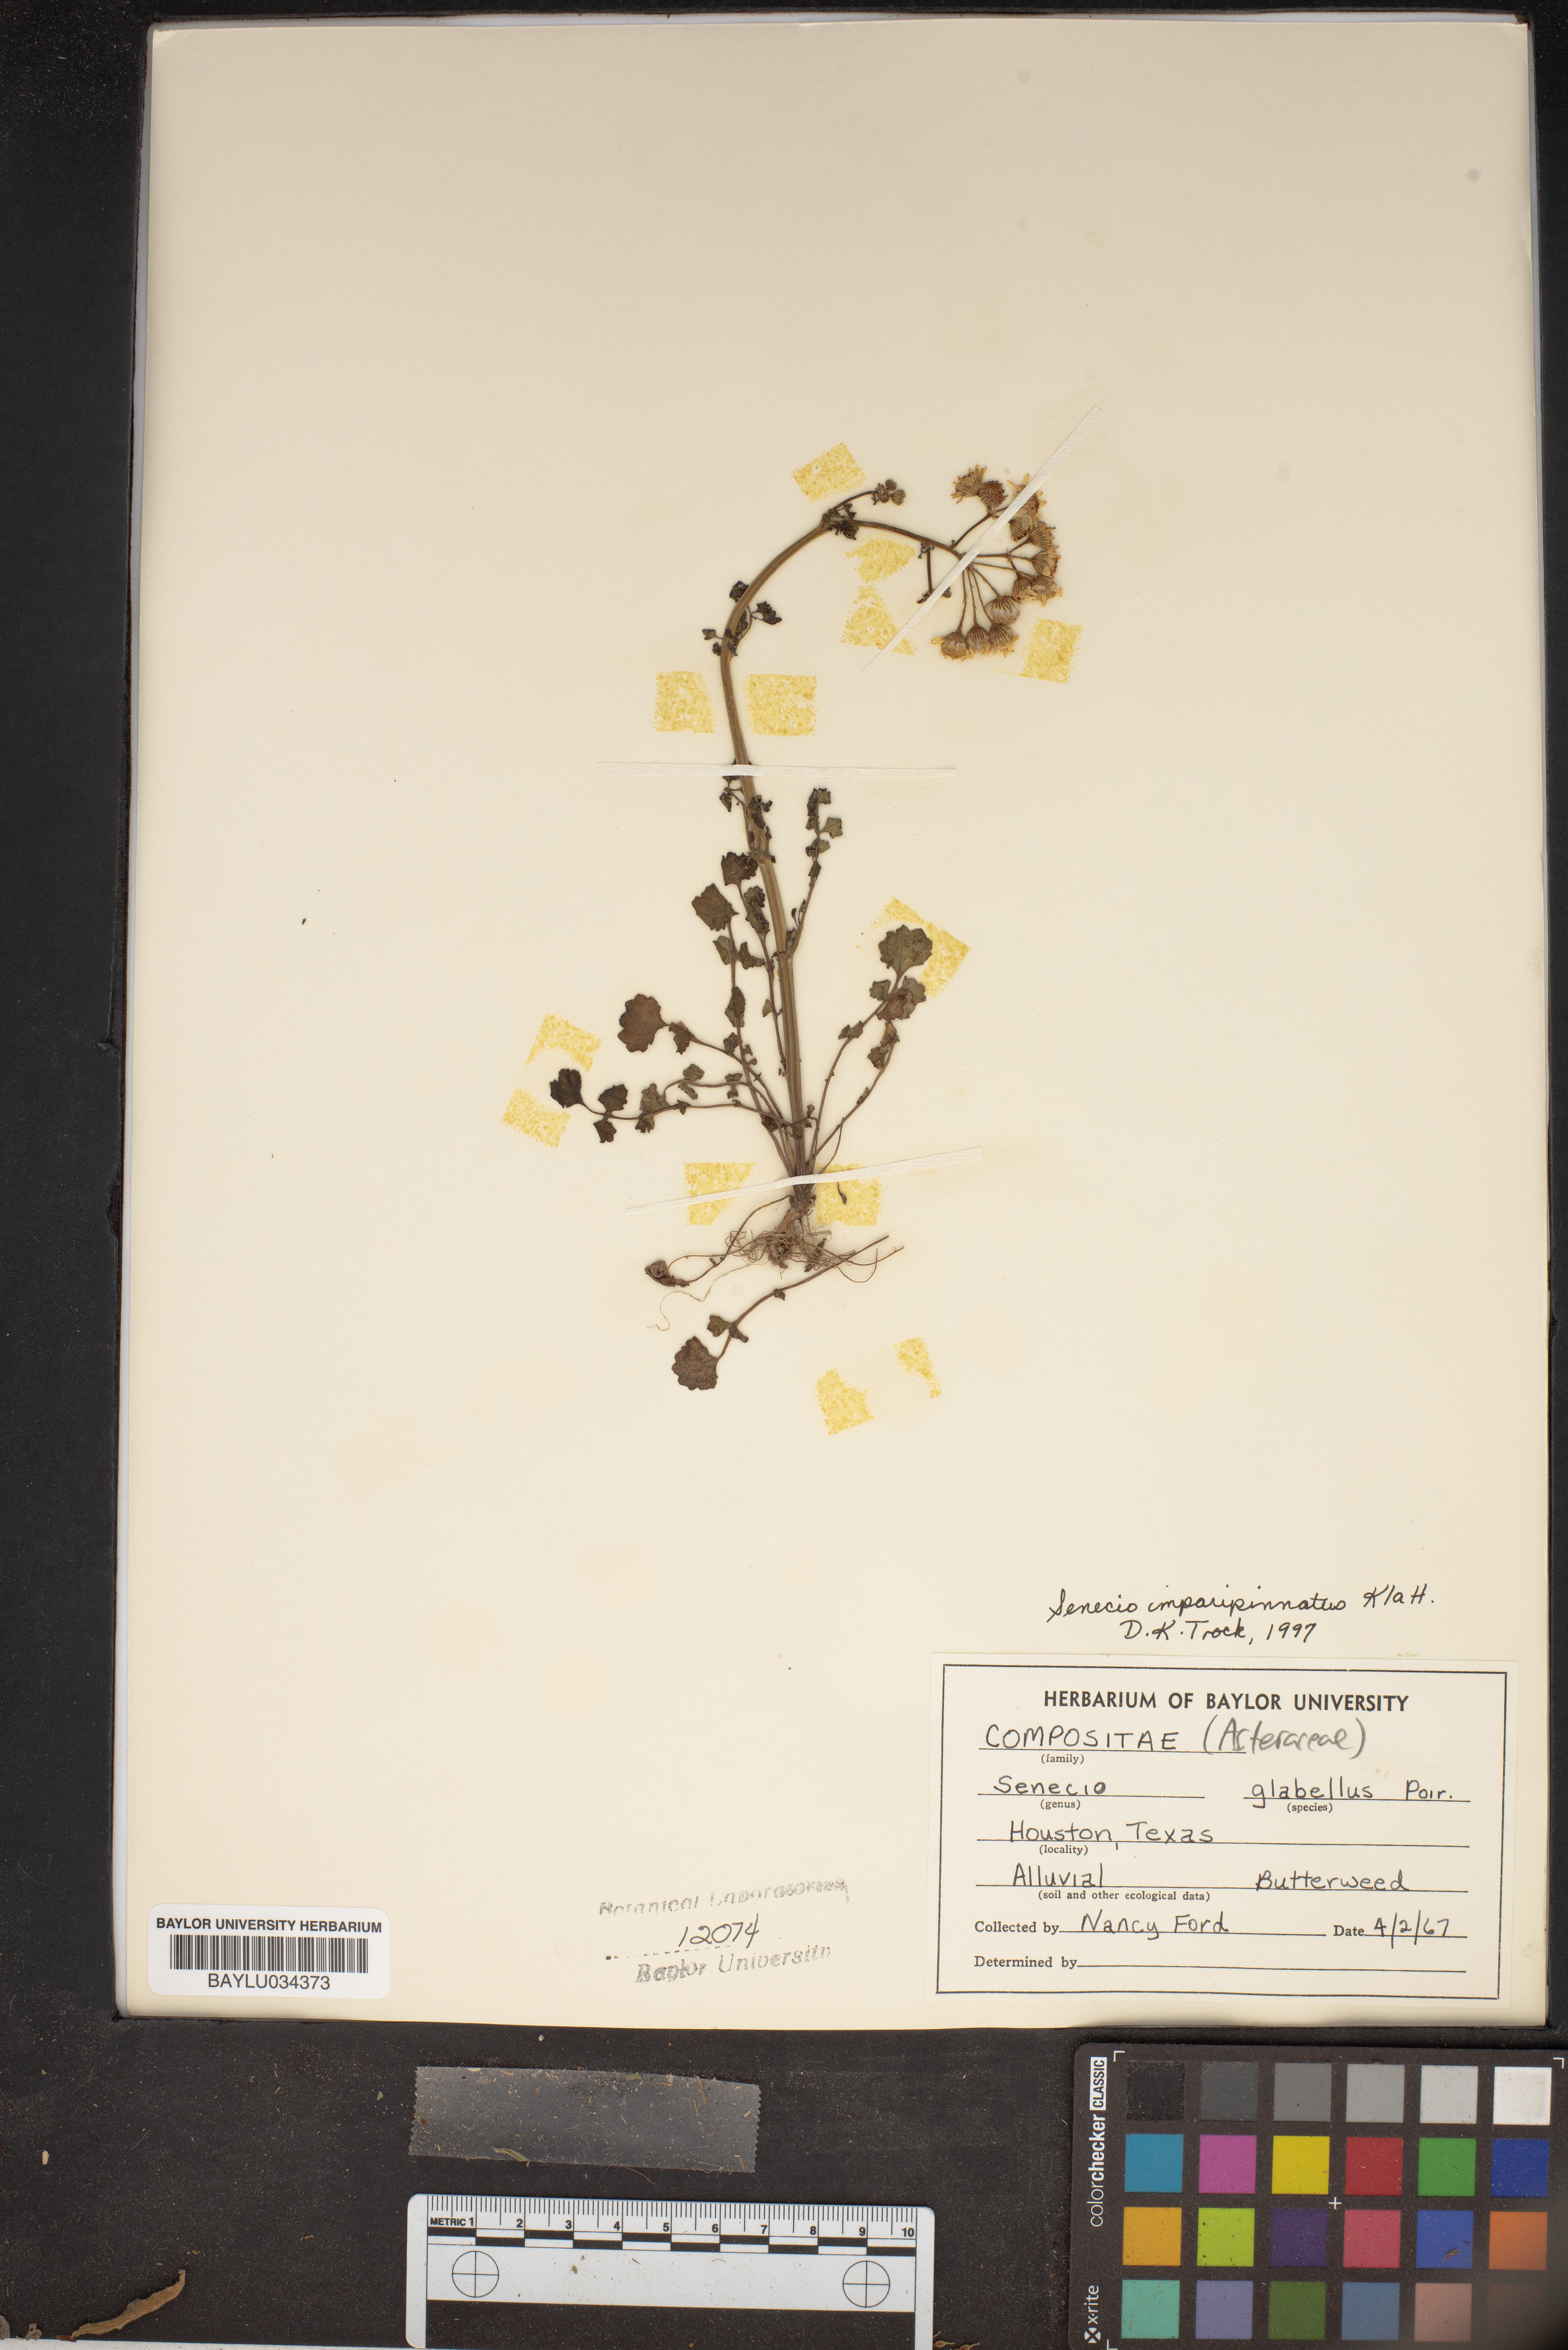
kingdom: Plantae
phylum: Tracheophyta
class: Magnoliopsida
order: Asterales
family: Asteraceae
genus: Tephroseris
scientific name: Tephroseris praticola
